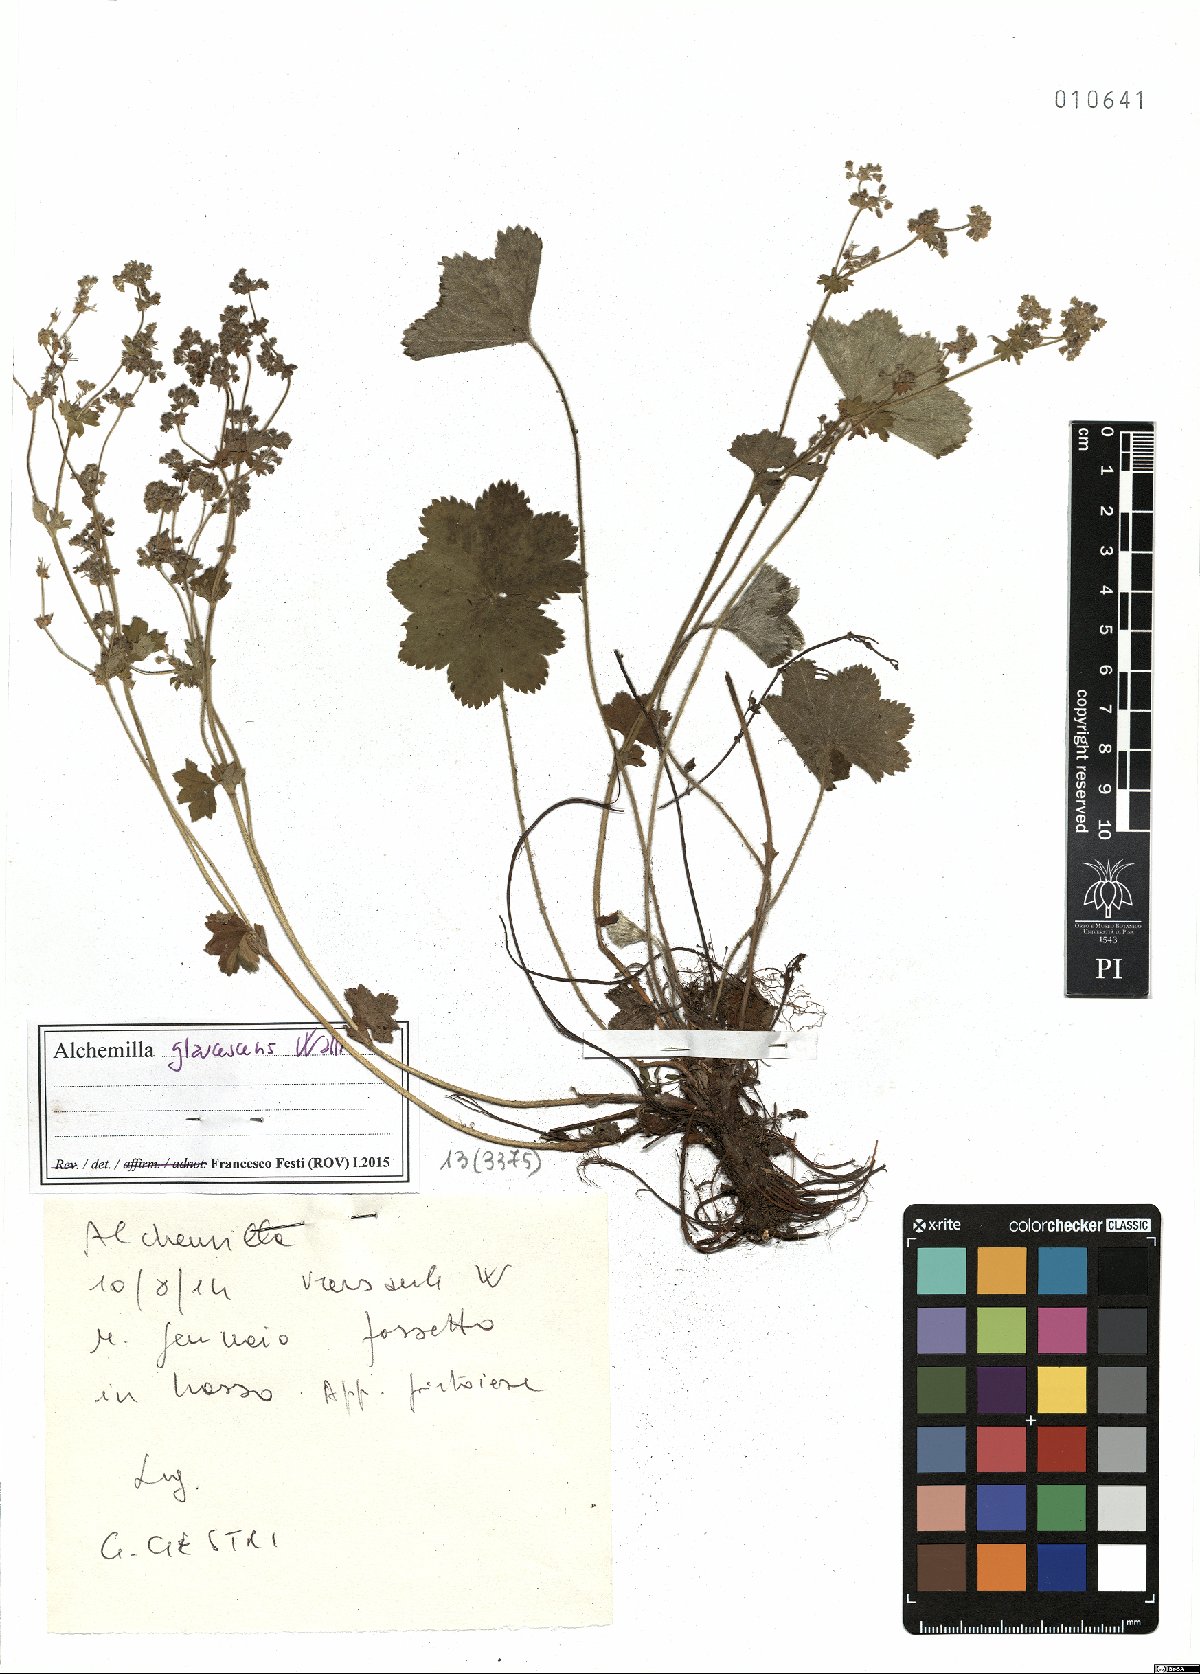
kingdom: Plantae
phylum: Tracheophyta
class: Magnoliopsida
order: Rosales
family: Rosaceae
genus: Alchemilla
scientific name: Alchemilla glaucescens
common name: Silky lady's mantle
